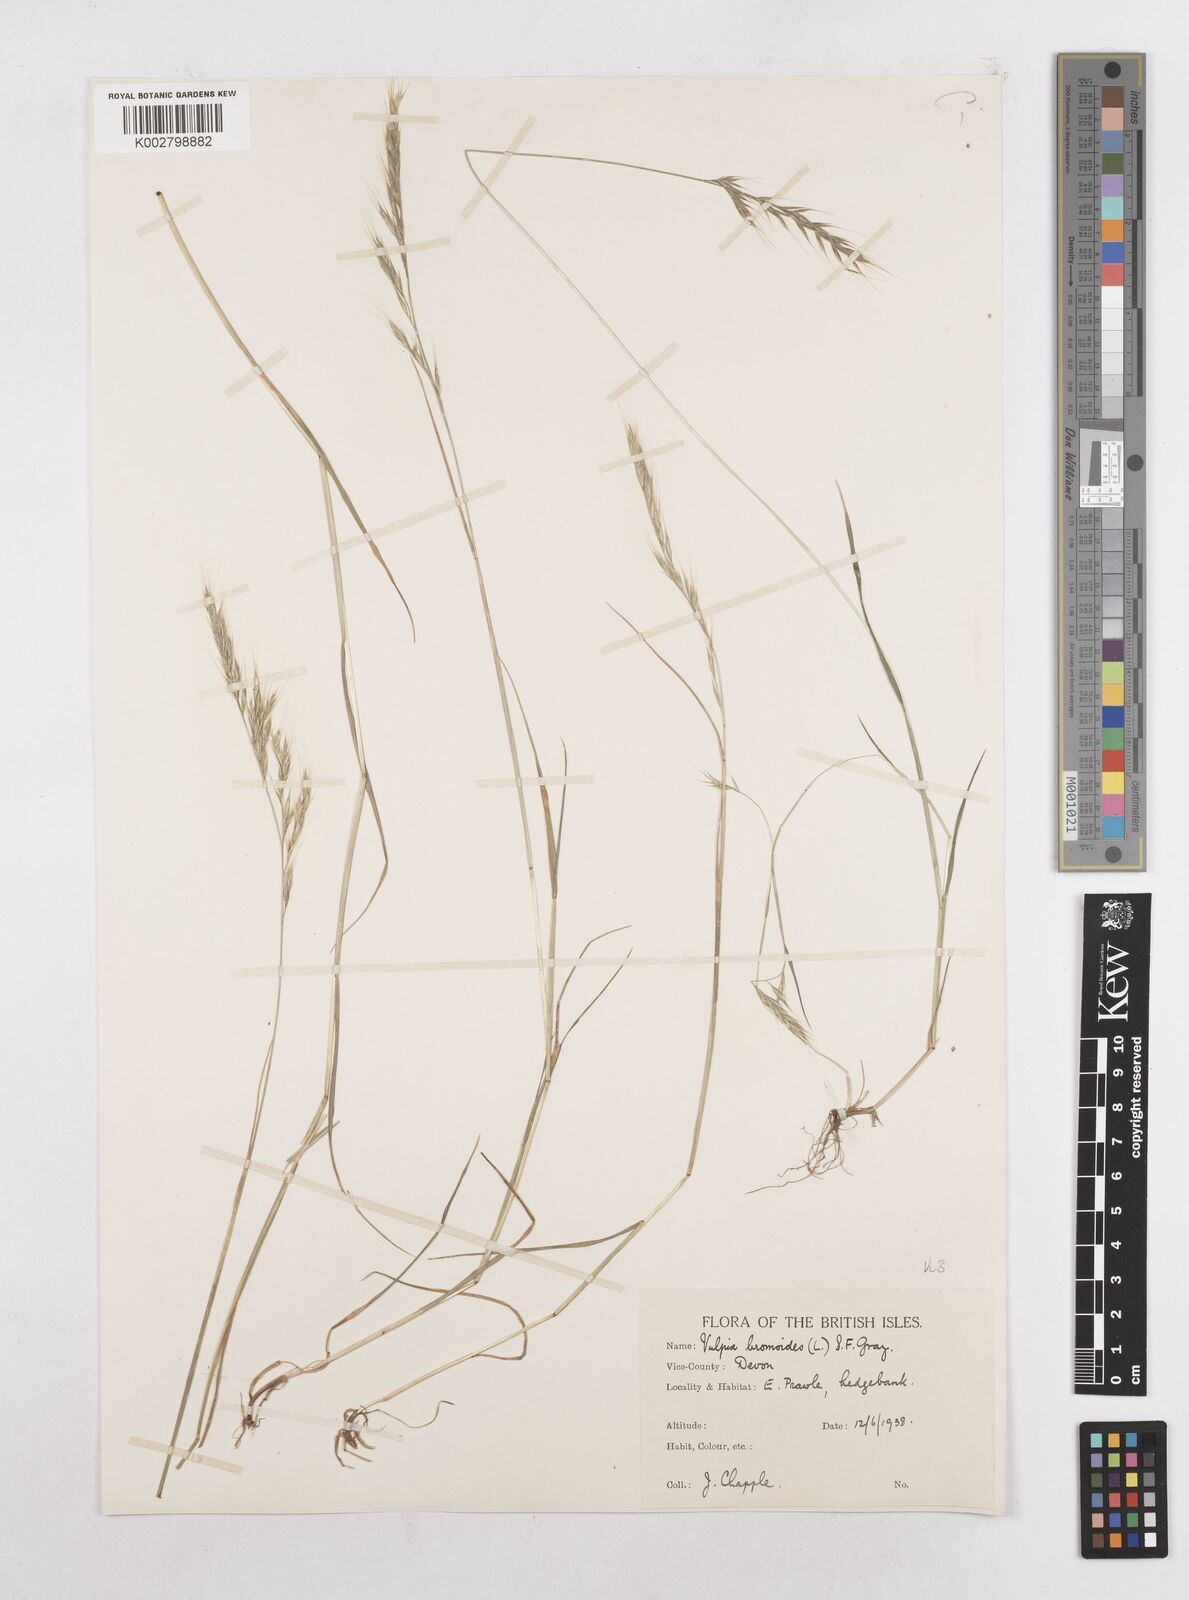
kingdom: Plantae
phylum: Tracheophyta
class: Liliopsida
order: Poales
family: Poaceae
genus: Festuca
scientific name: Festuca bromoides
